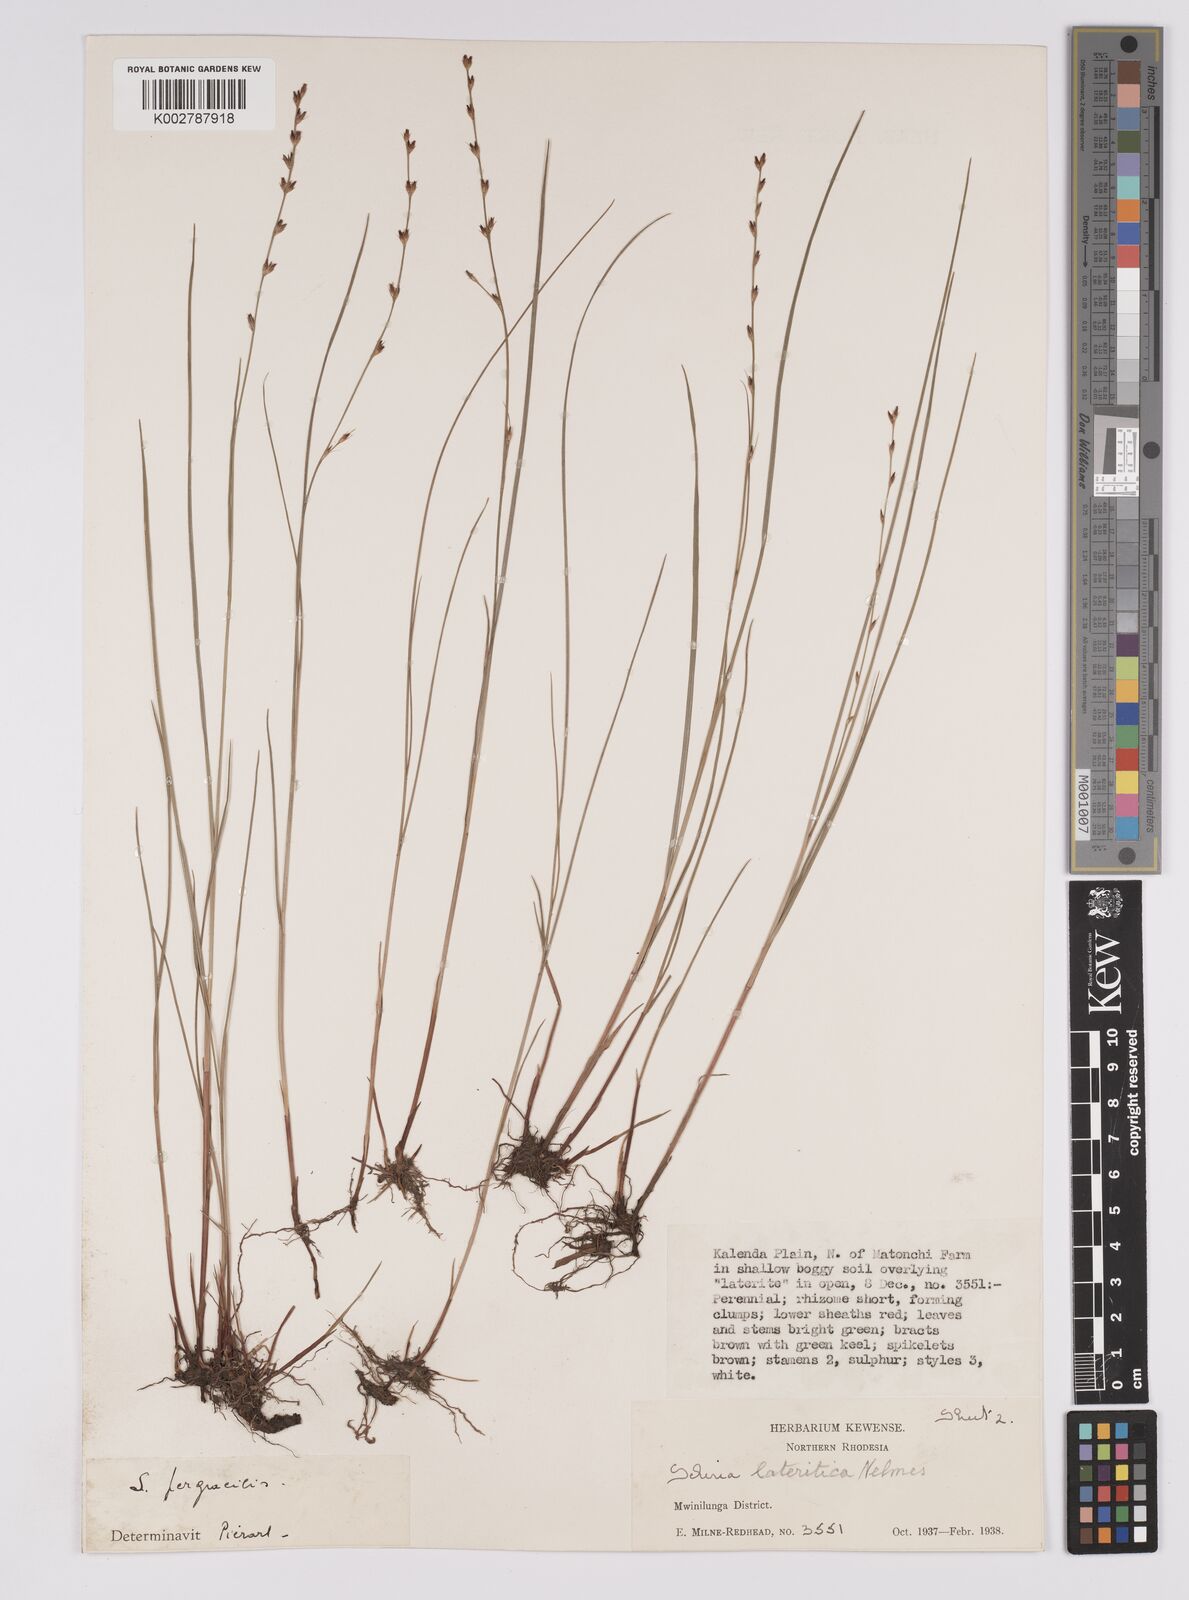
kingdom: Plantae
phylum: Tracheophyta
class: Liliopsida
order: Poales
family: Cyperaceae
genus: Scleria
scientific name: Scleria lateritica
